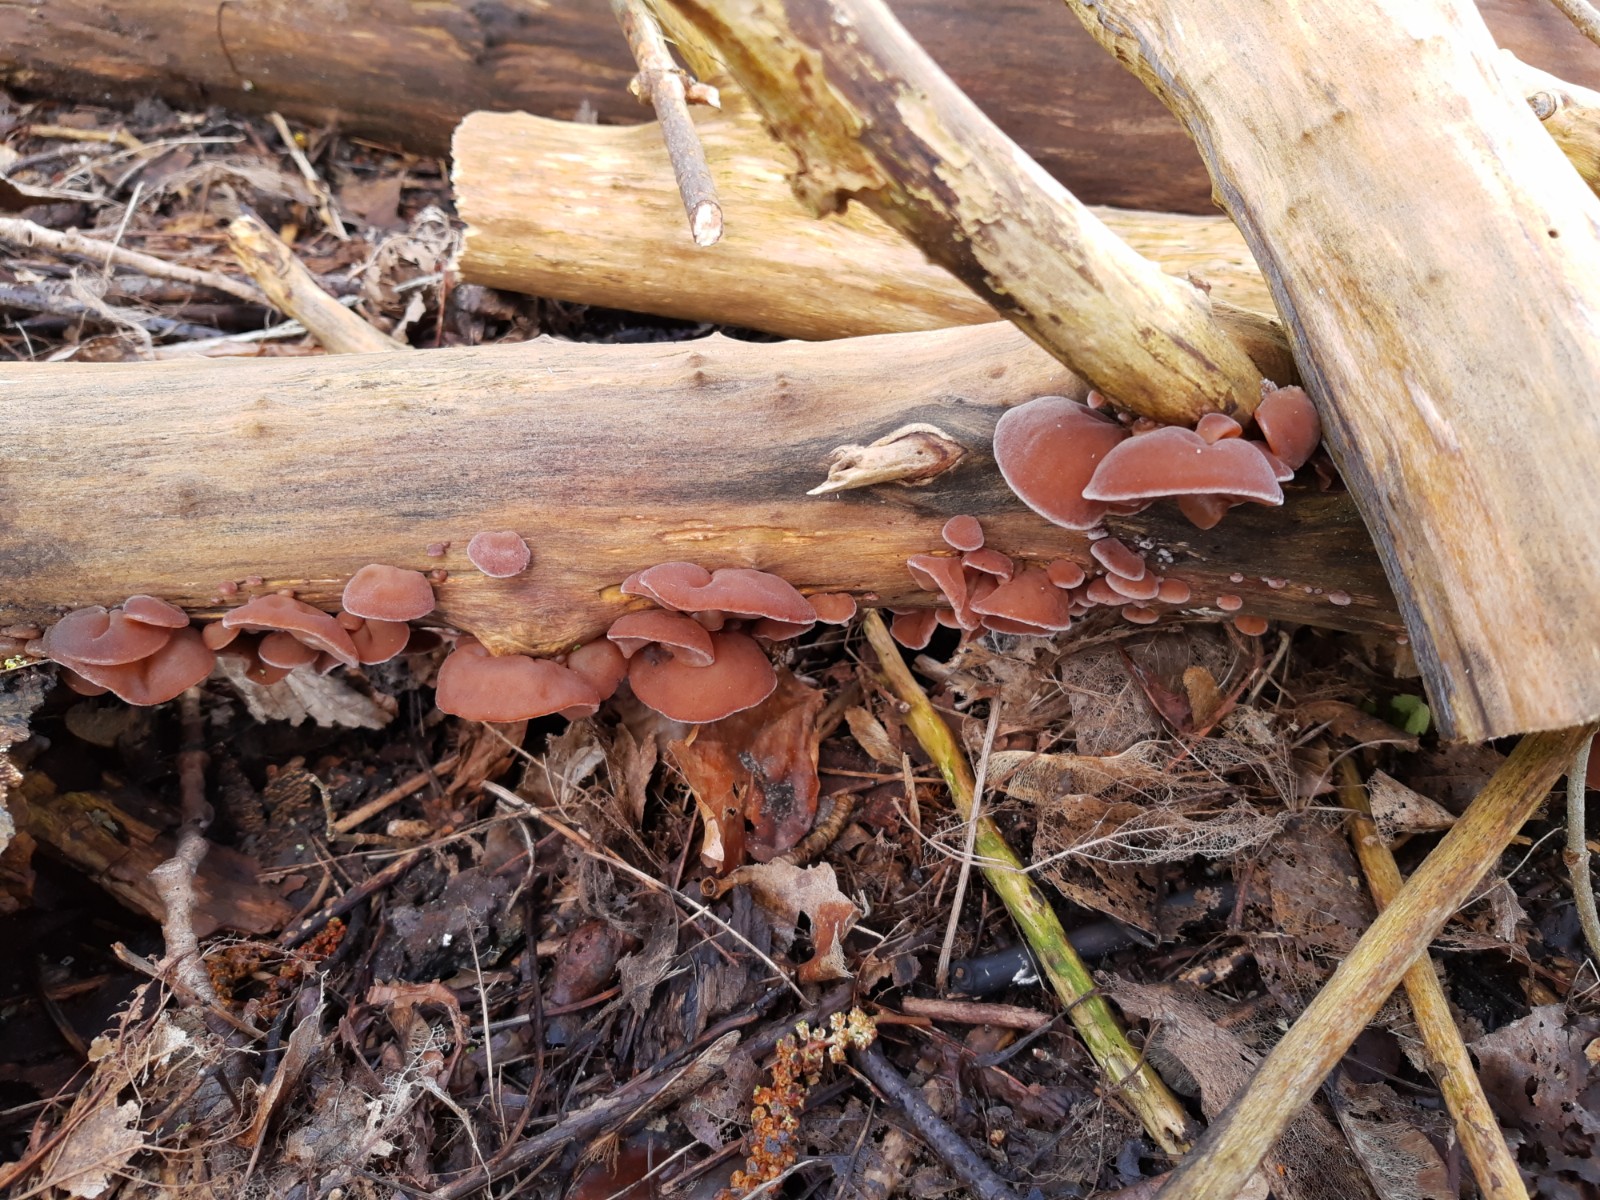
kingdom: Fungi
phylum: Basidiomycota
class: Agaricomycetes
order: Auriculariales
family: Auriculariaceae
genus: Auricularia
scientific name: Auricularia auricula-judae
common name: almindelig judasøre
